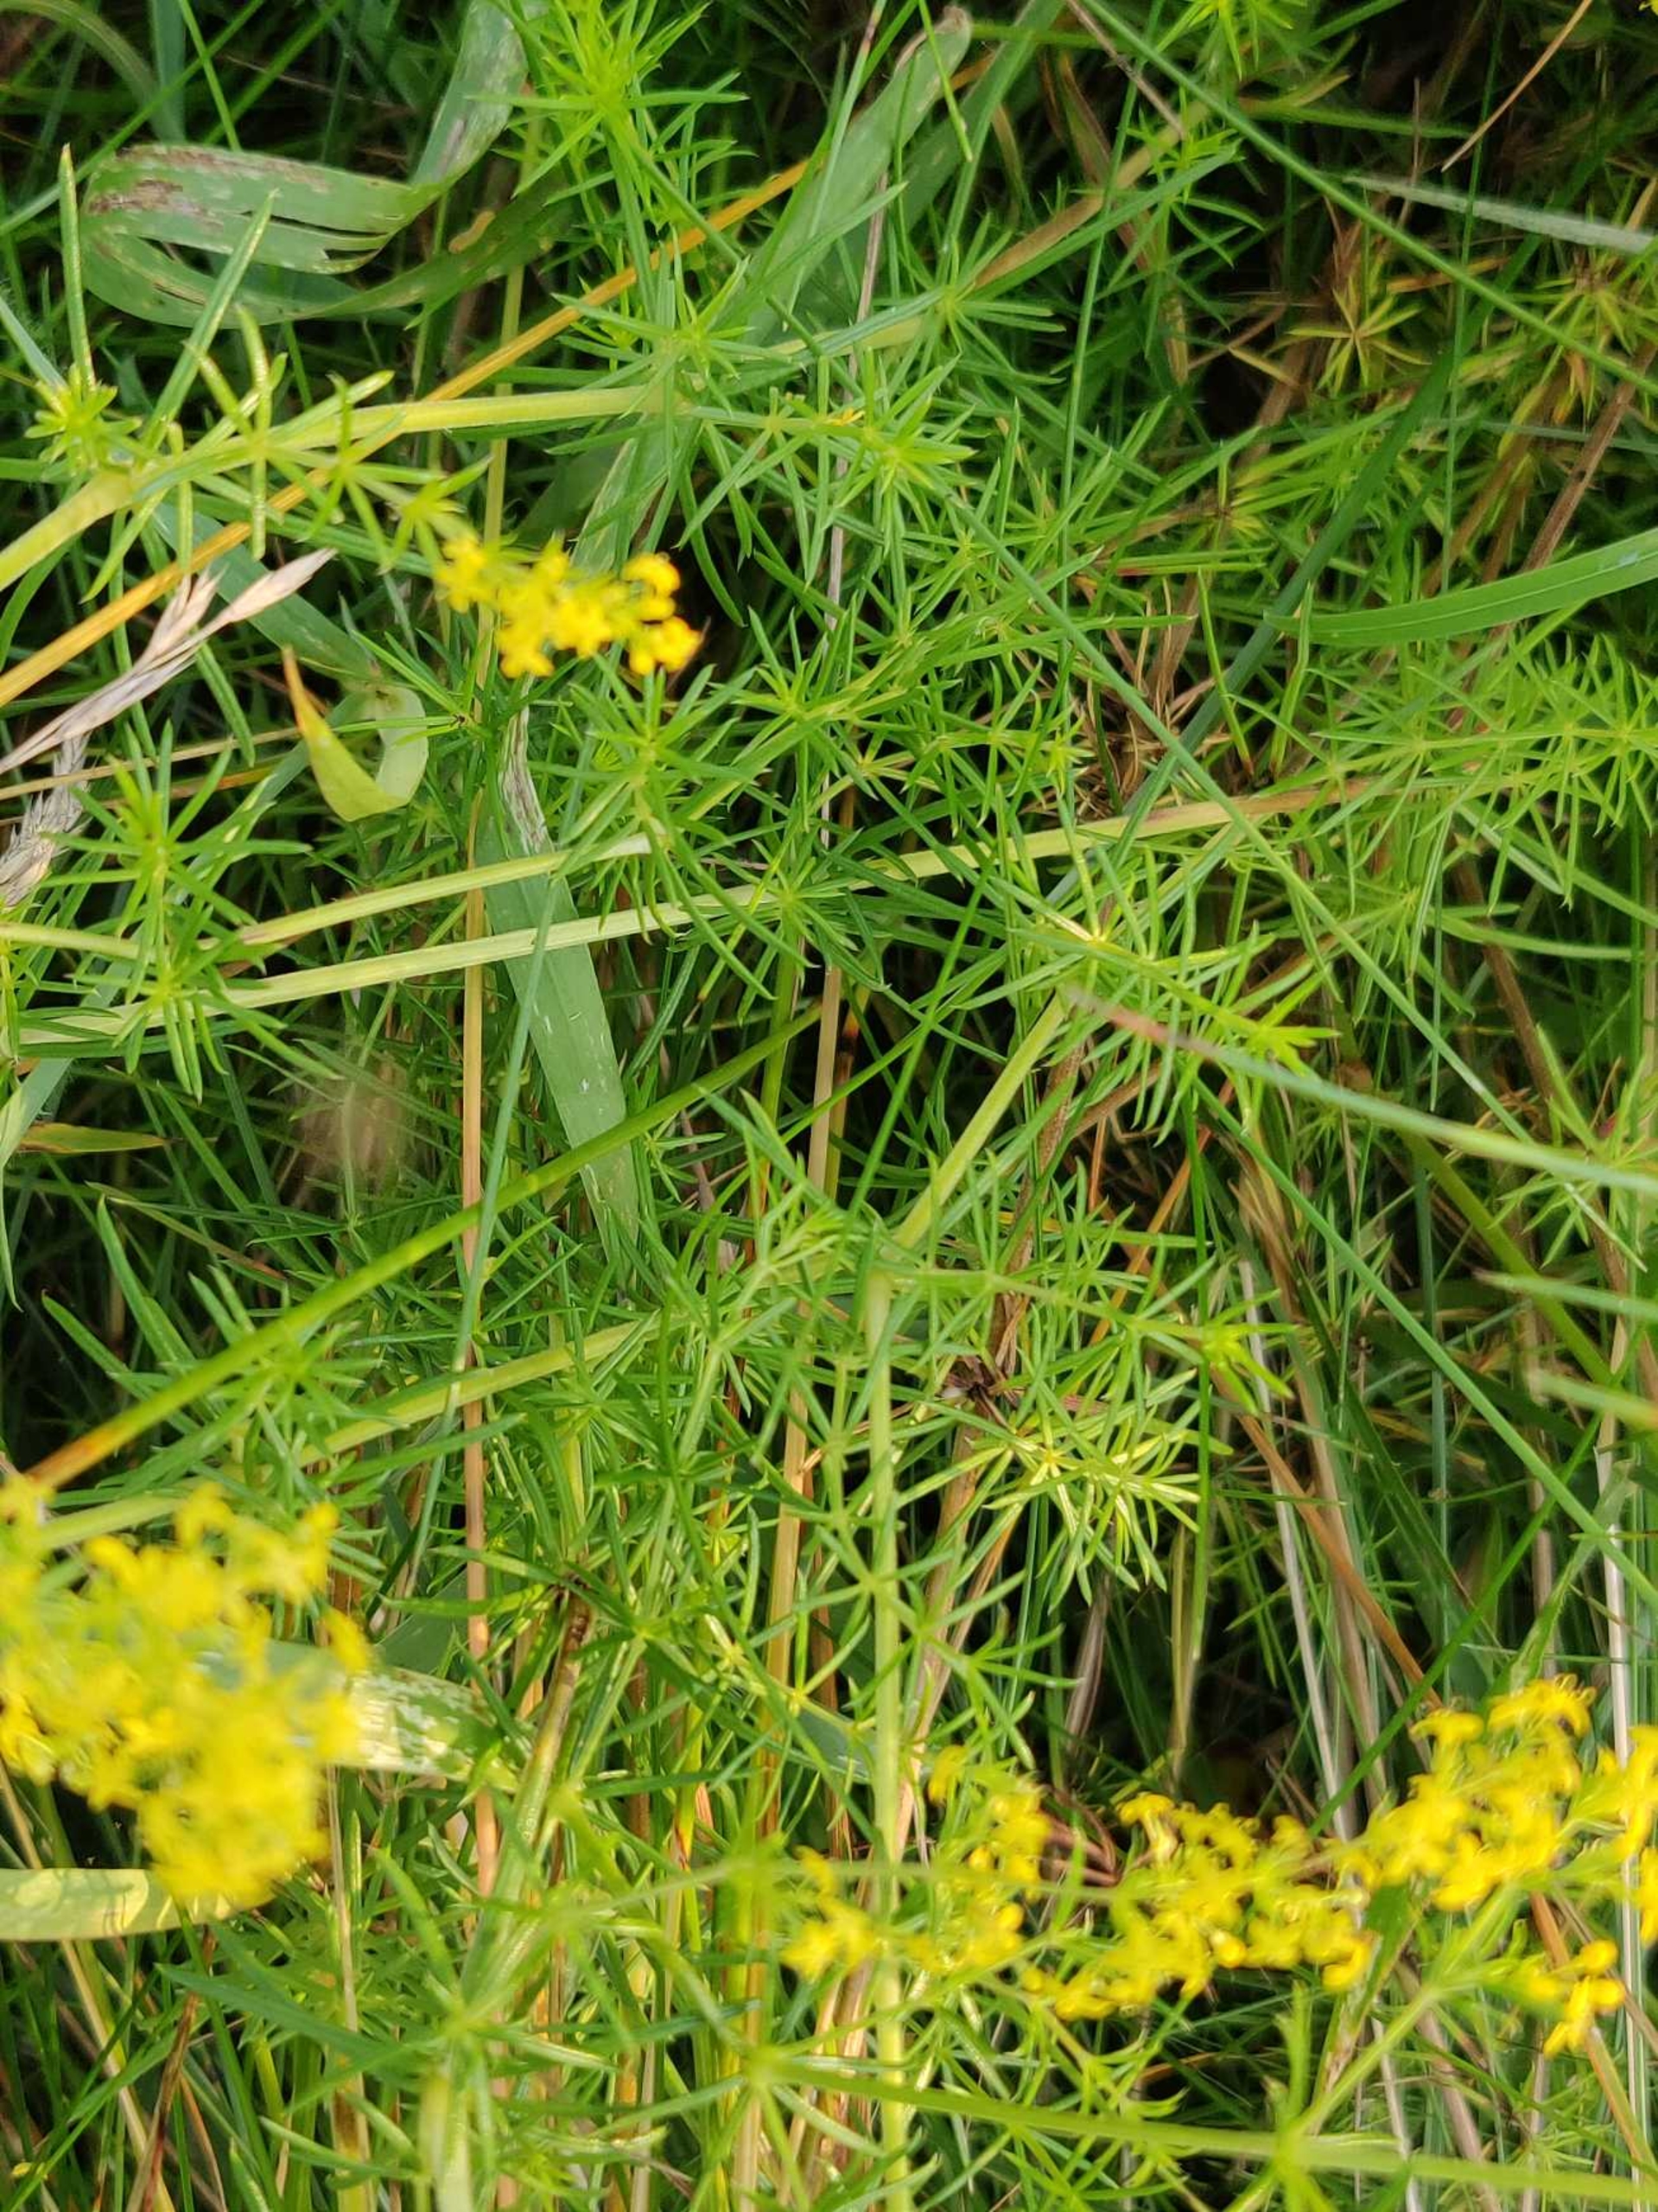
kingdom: Plantae
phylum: Tracheophyta
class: Magnoliopsida
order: Gentianales
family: Rubiaceae
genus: Galium
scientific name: Galium verum
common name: Gul snerre
